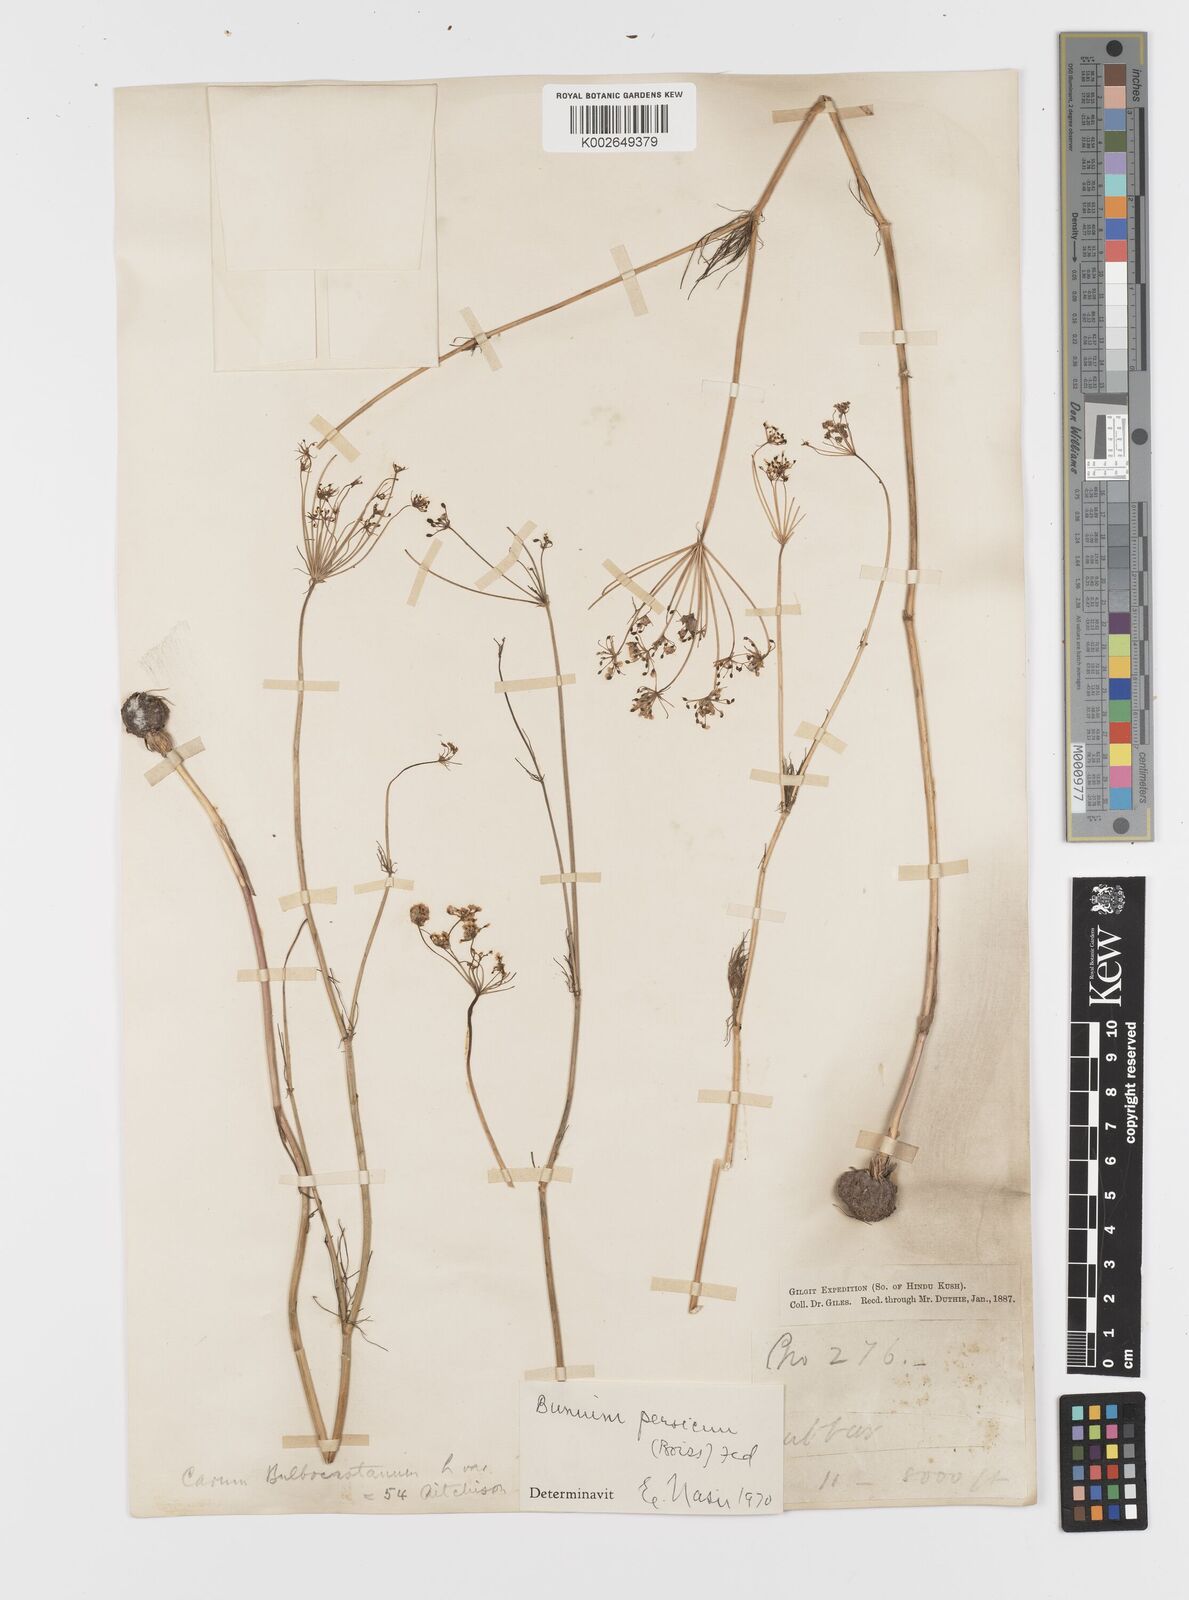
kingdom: Plantae
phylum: Tracheophyta
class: Magnoliopsida
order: Apiales
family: Apiaceae
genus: Bunium
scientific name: Bunium bulbocastanum
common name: Great pignut
